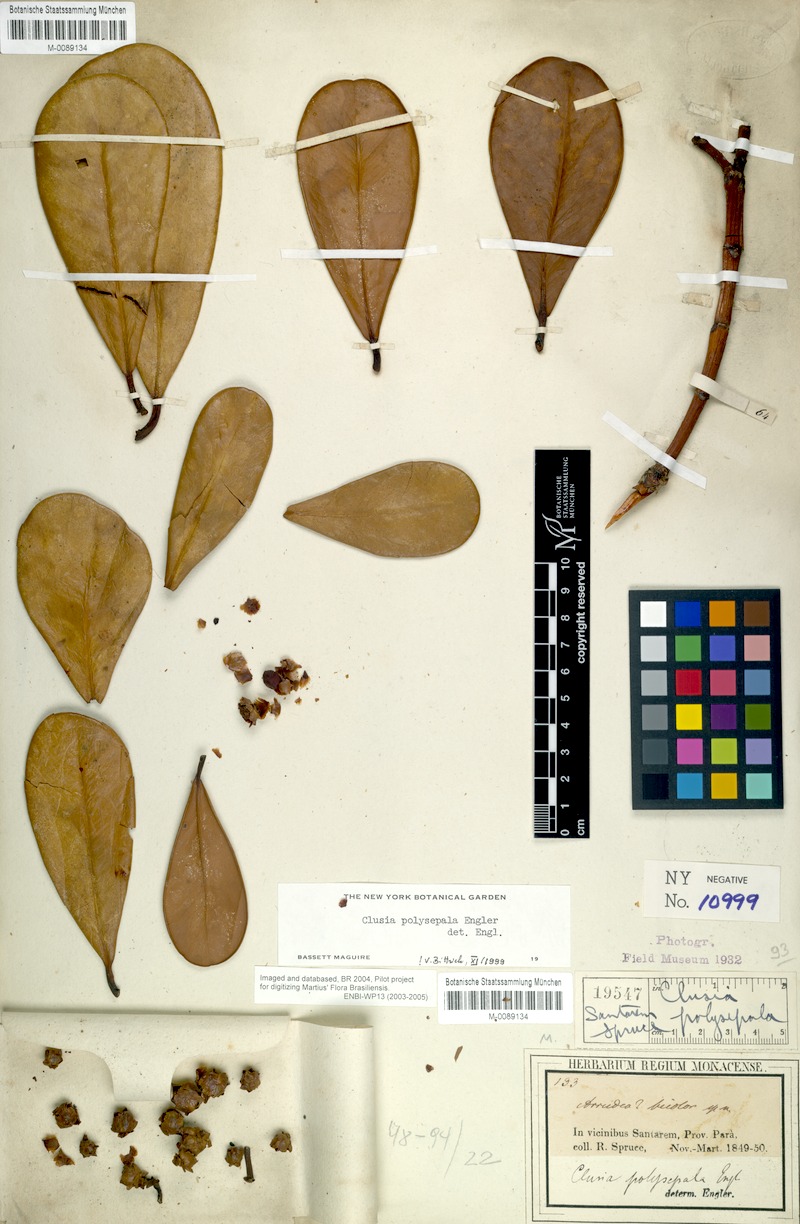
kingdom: Plantae
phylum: Tracheophyta
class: Magnoliopsida
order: Malpighiales
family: Clusiaceae
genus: Clusia
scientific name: Clusia polysepala
